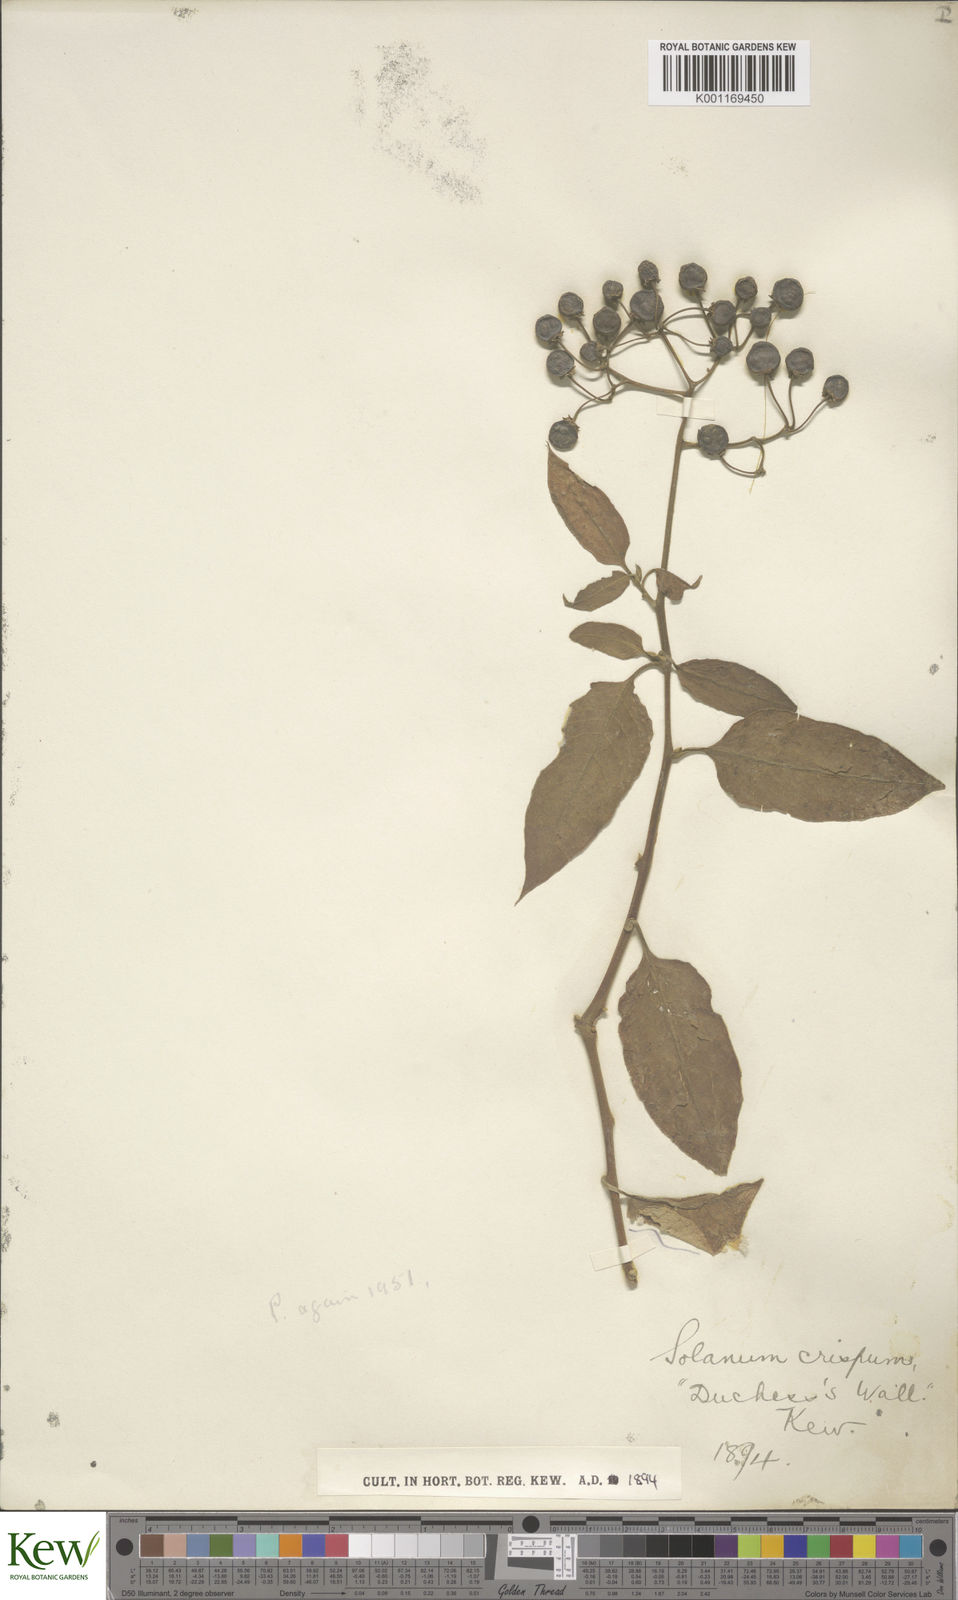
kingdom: Plantae
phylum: Tracheophyta
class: Magnoliopsida
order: Solanales
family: Solanaceae
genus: Solanum
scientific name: Solanum crispum
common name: Chilean nightshade
